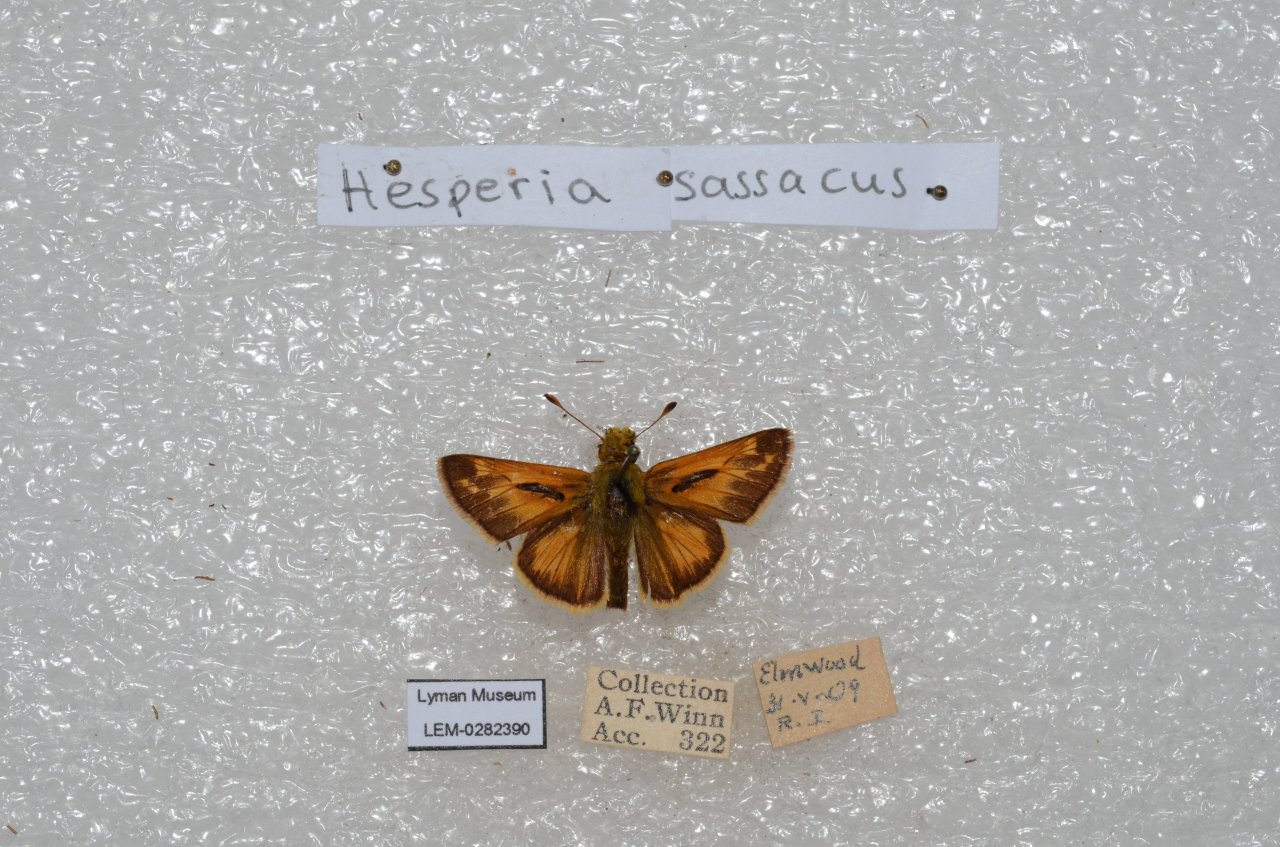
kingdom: Animalia
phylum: Arthropoda
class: Insecta
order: Lepidoptera
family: Hesperiidae
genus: Hesperia
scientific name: Hesperia sassacus
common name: Sassacus Skipper
